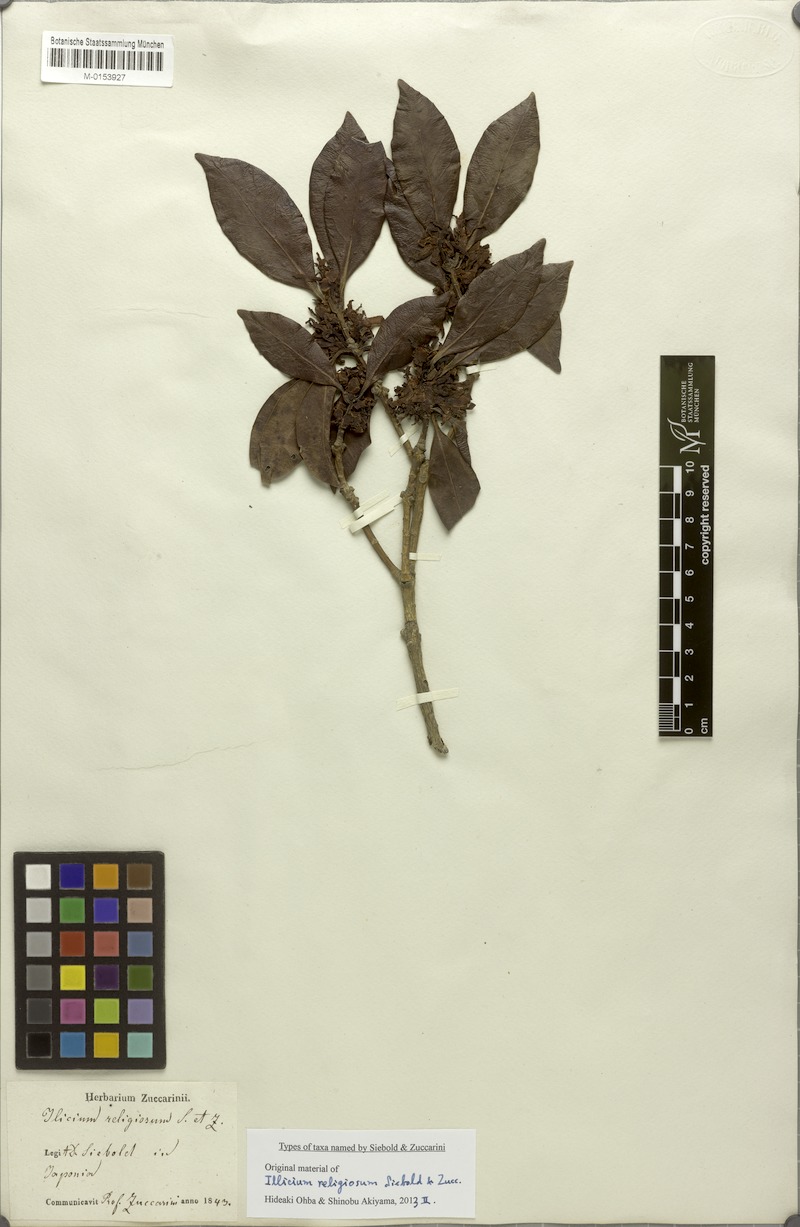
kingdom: Plantae
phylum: Tracheophyta
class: Magnoliopsida
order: Austrobaileyales
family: Schisandraceae
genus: Illicium
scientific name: Illicium anisatum
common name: Sacred anisetree
